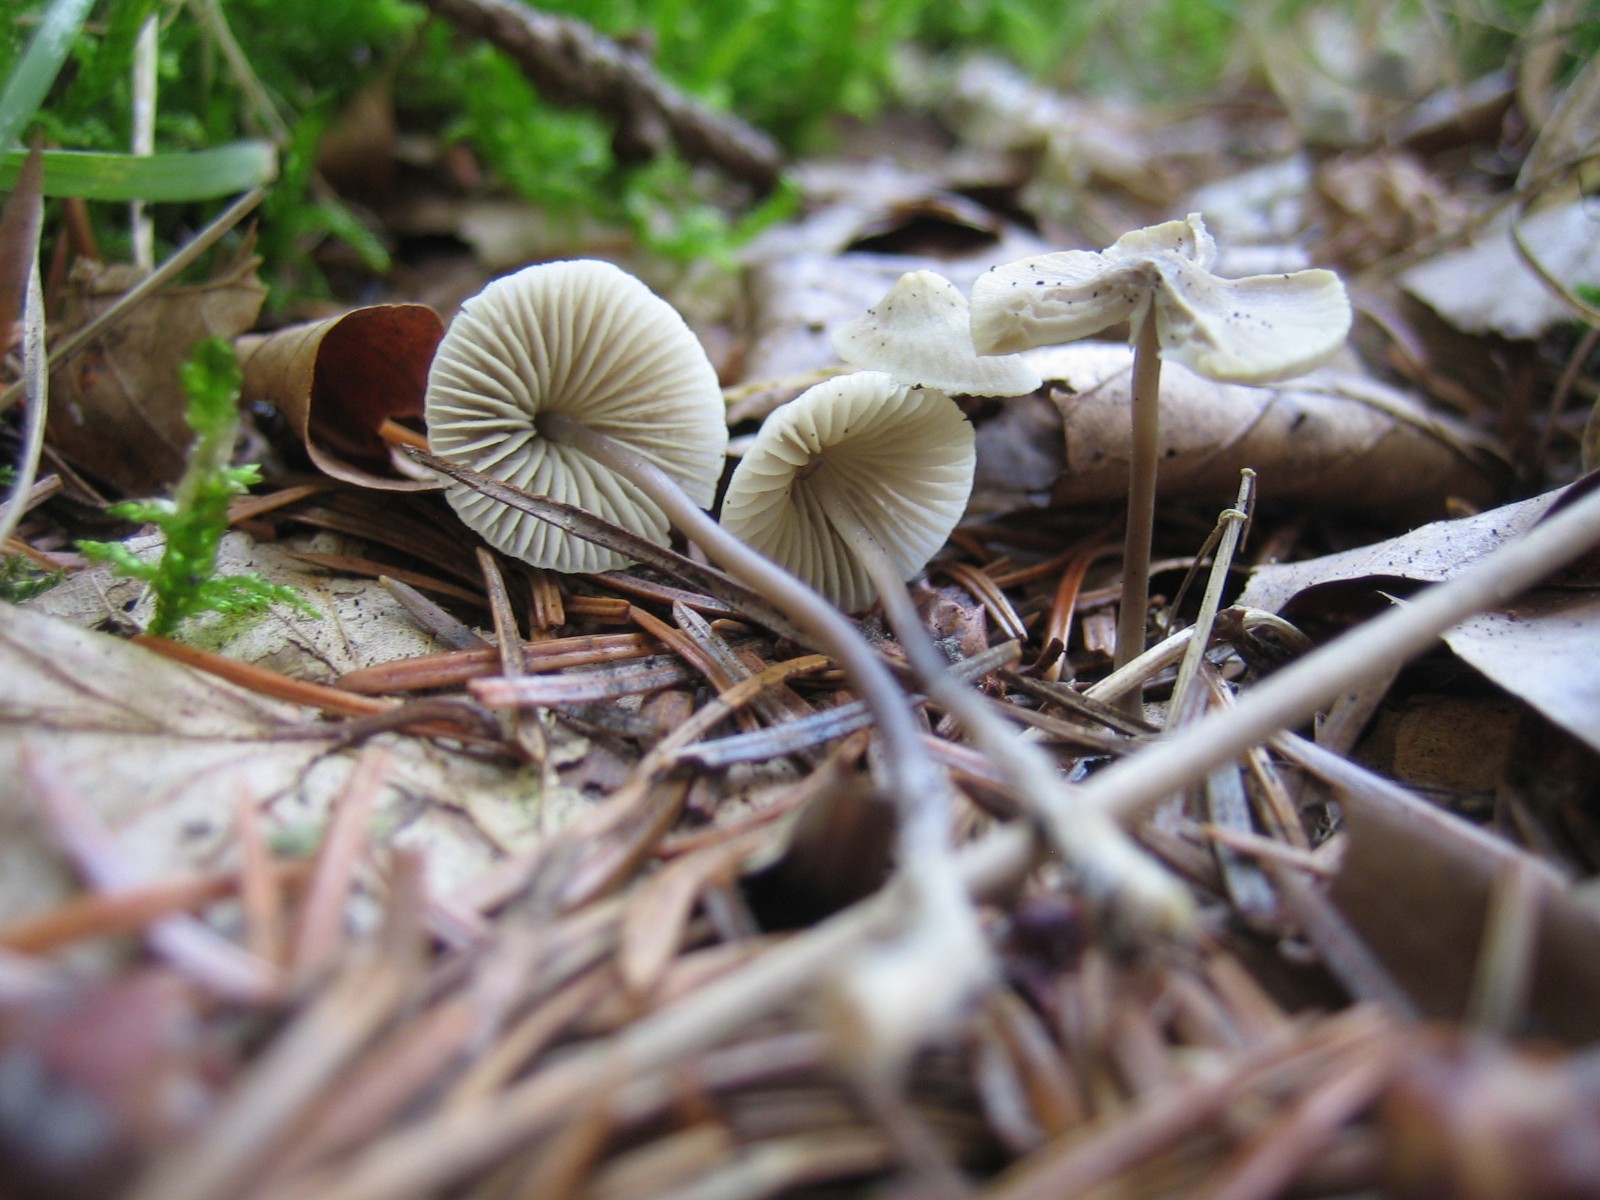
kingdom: Fungi
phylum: Basidiomycota
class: Agaricomycetes
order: Agaricales
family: Mycenaceae
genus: Mycena
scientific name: Mycena flavescens
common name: grågul huesvamp
